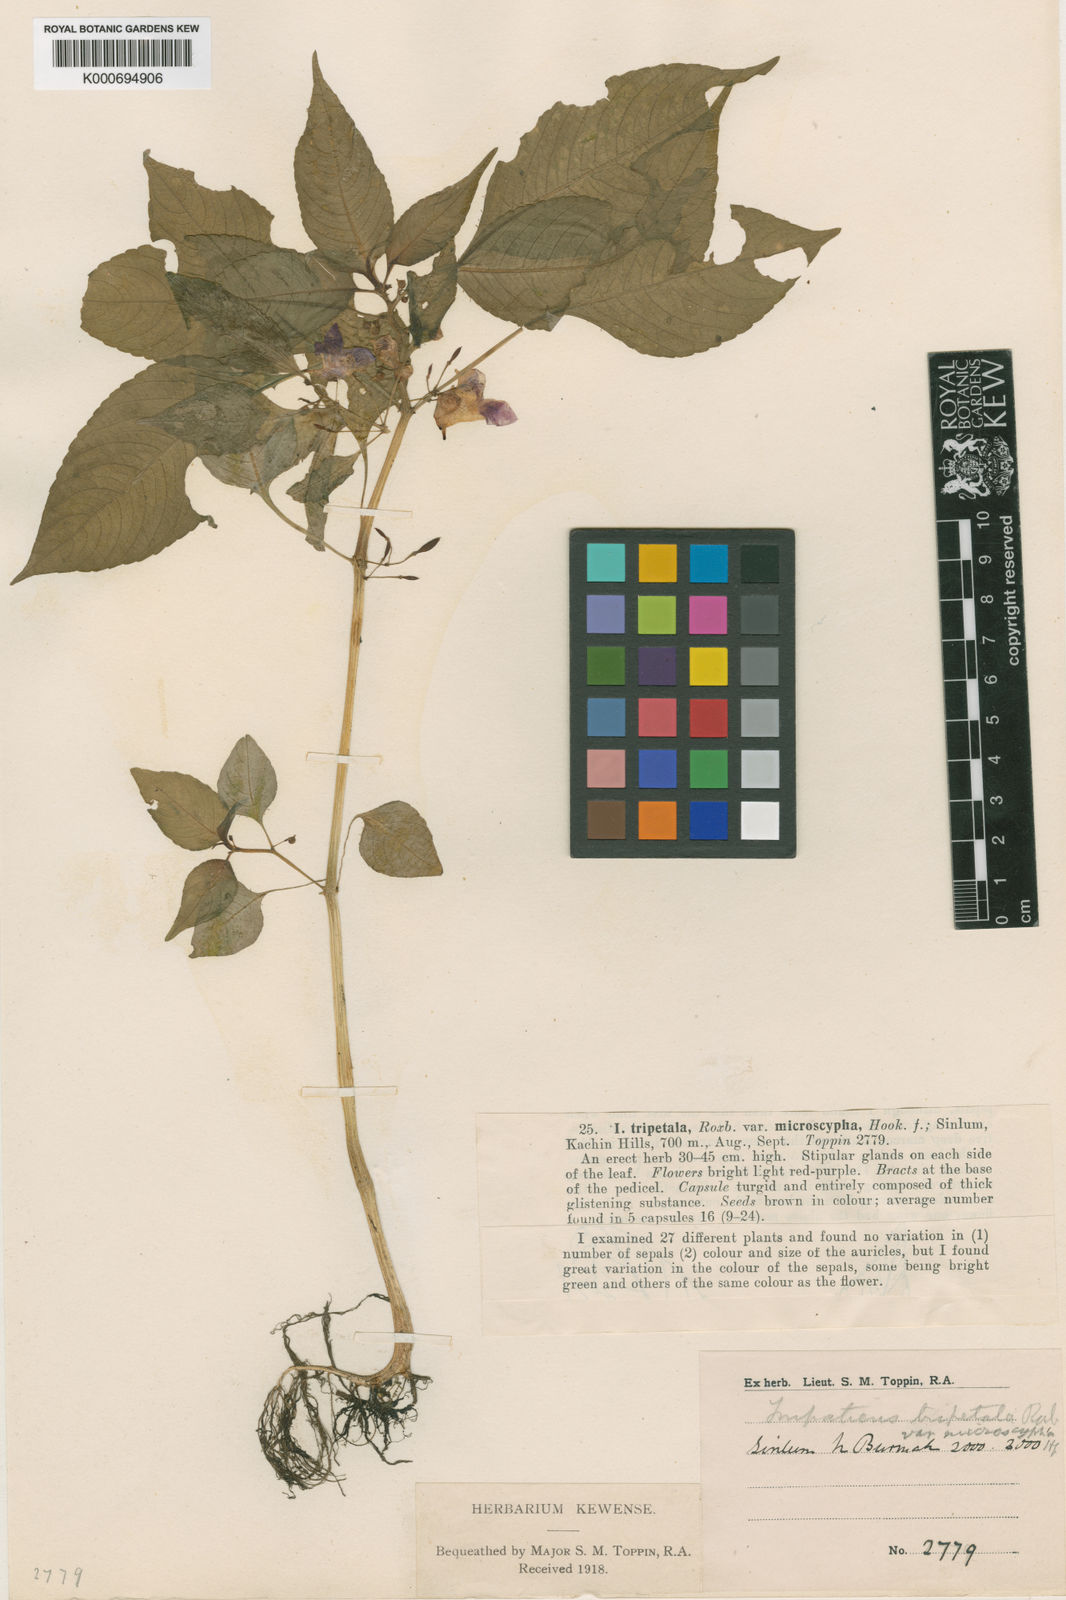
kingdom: Plantae
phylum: Tracheophyta
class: Magnoliopsida
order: Ericales
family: Balsaminaceae
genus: Impatiens
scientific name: Impatiens
